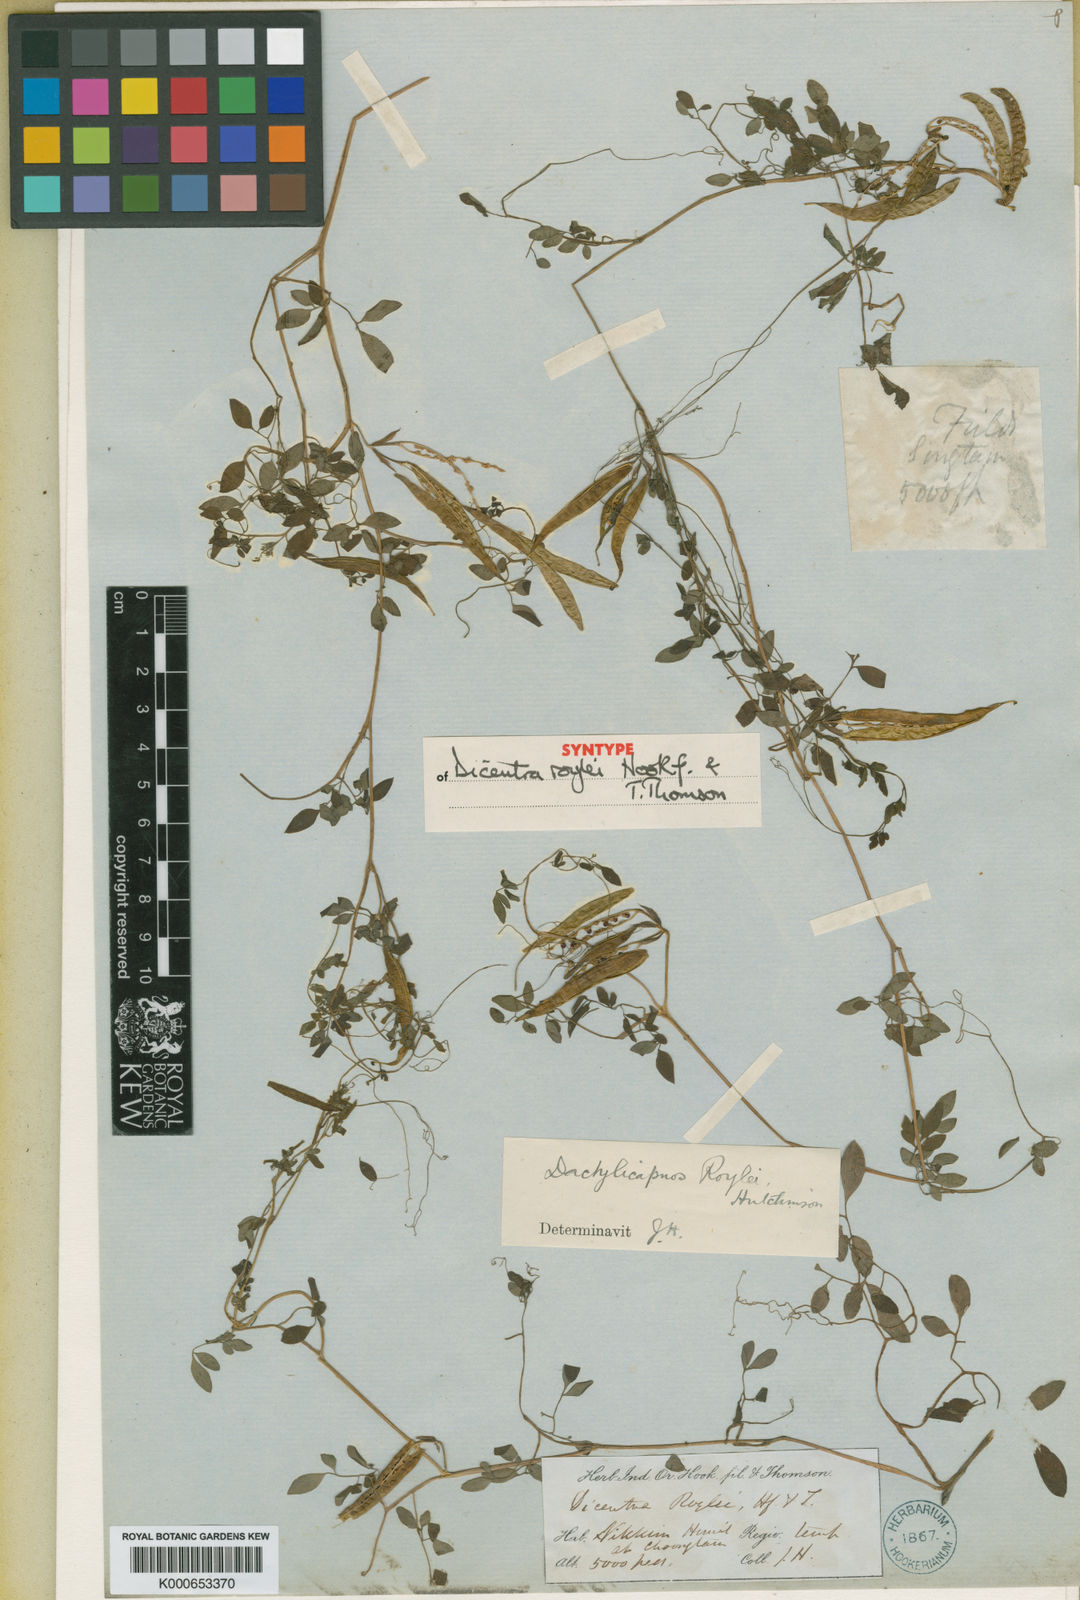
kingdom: Plantae
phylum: Tracheophyta
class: Magnoliopsida
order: Ranunculales
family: Papaveraceae
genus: Dactylicapnos
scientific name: Dactylicapnos roylei
